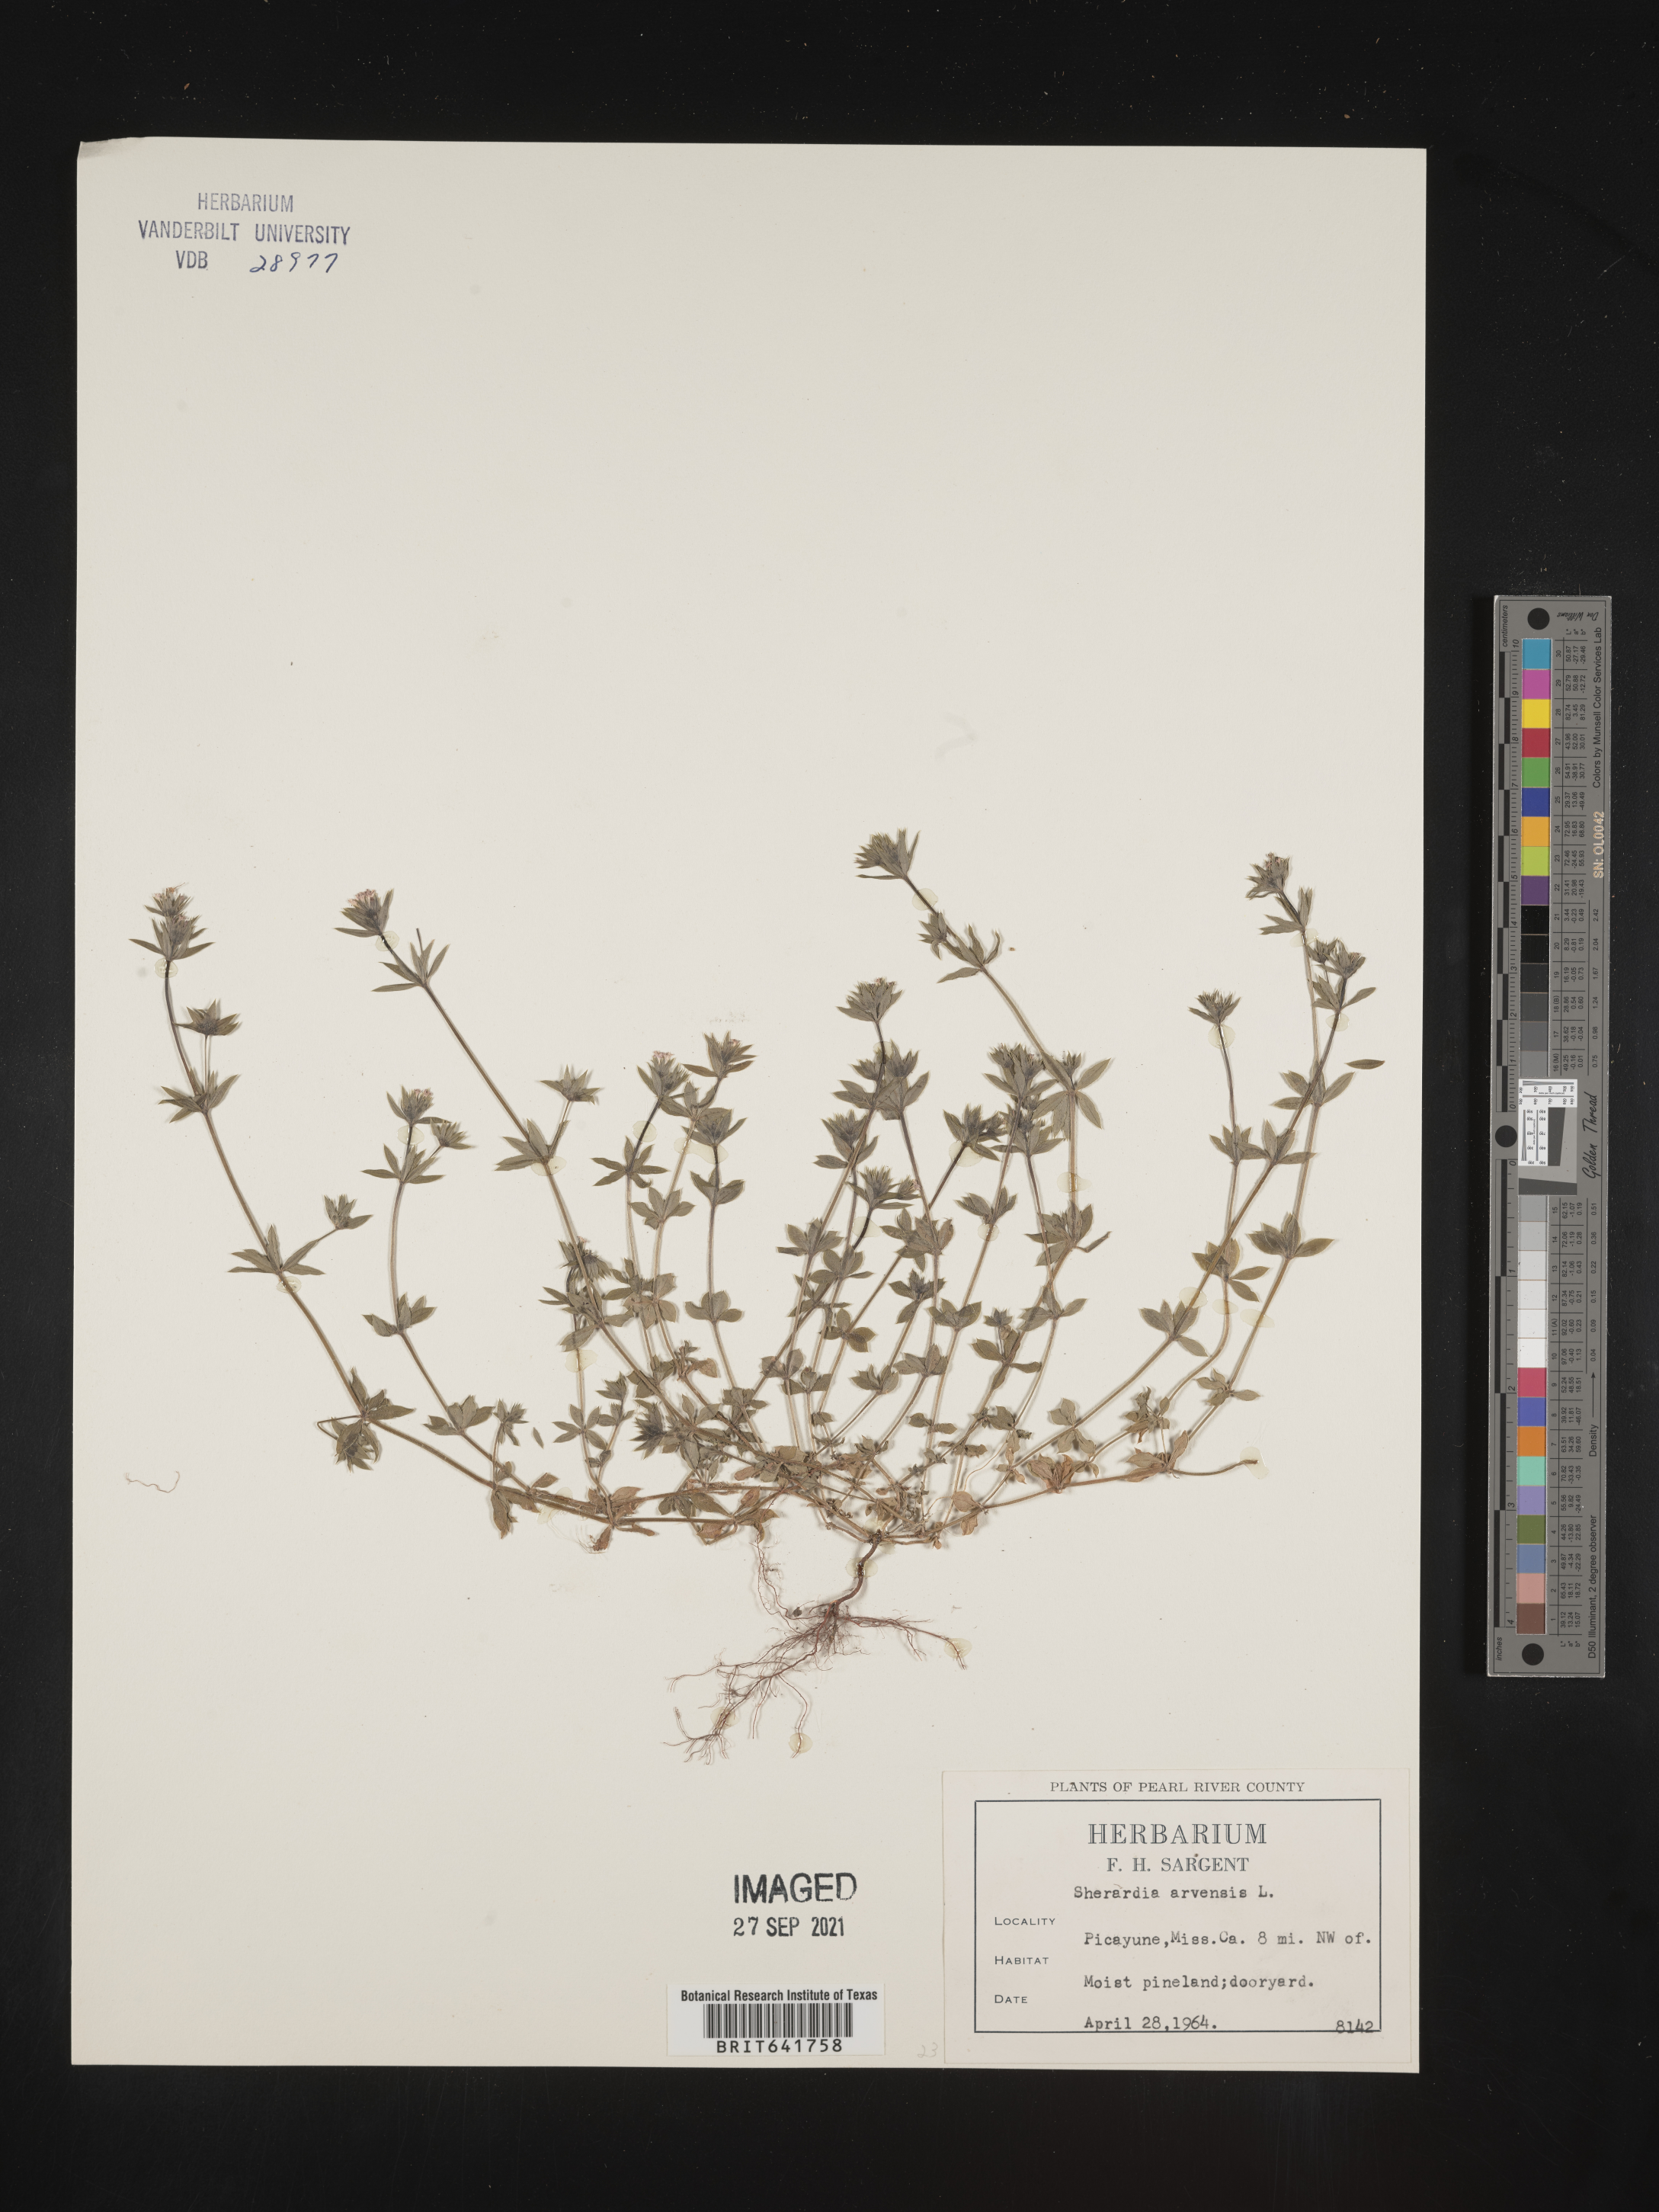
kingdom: Plantae
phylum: Tracheophyta
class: Magnoliopsida
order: Gentianales
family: Rubiaceae
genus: Sherardia
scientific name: Sherardia arvensis
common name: Field madder
